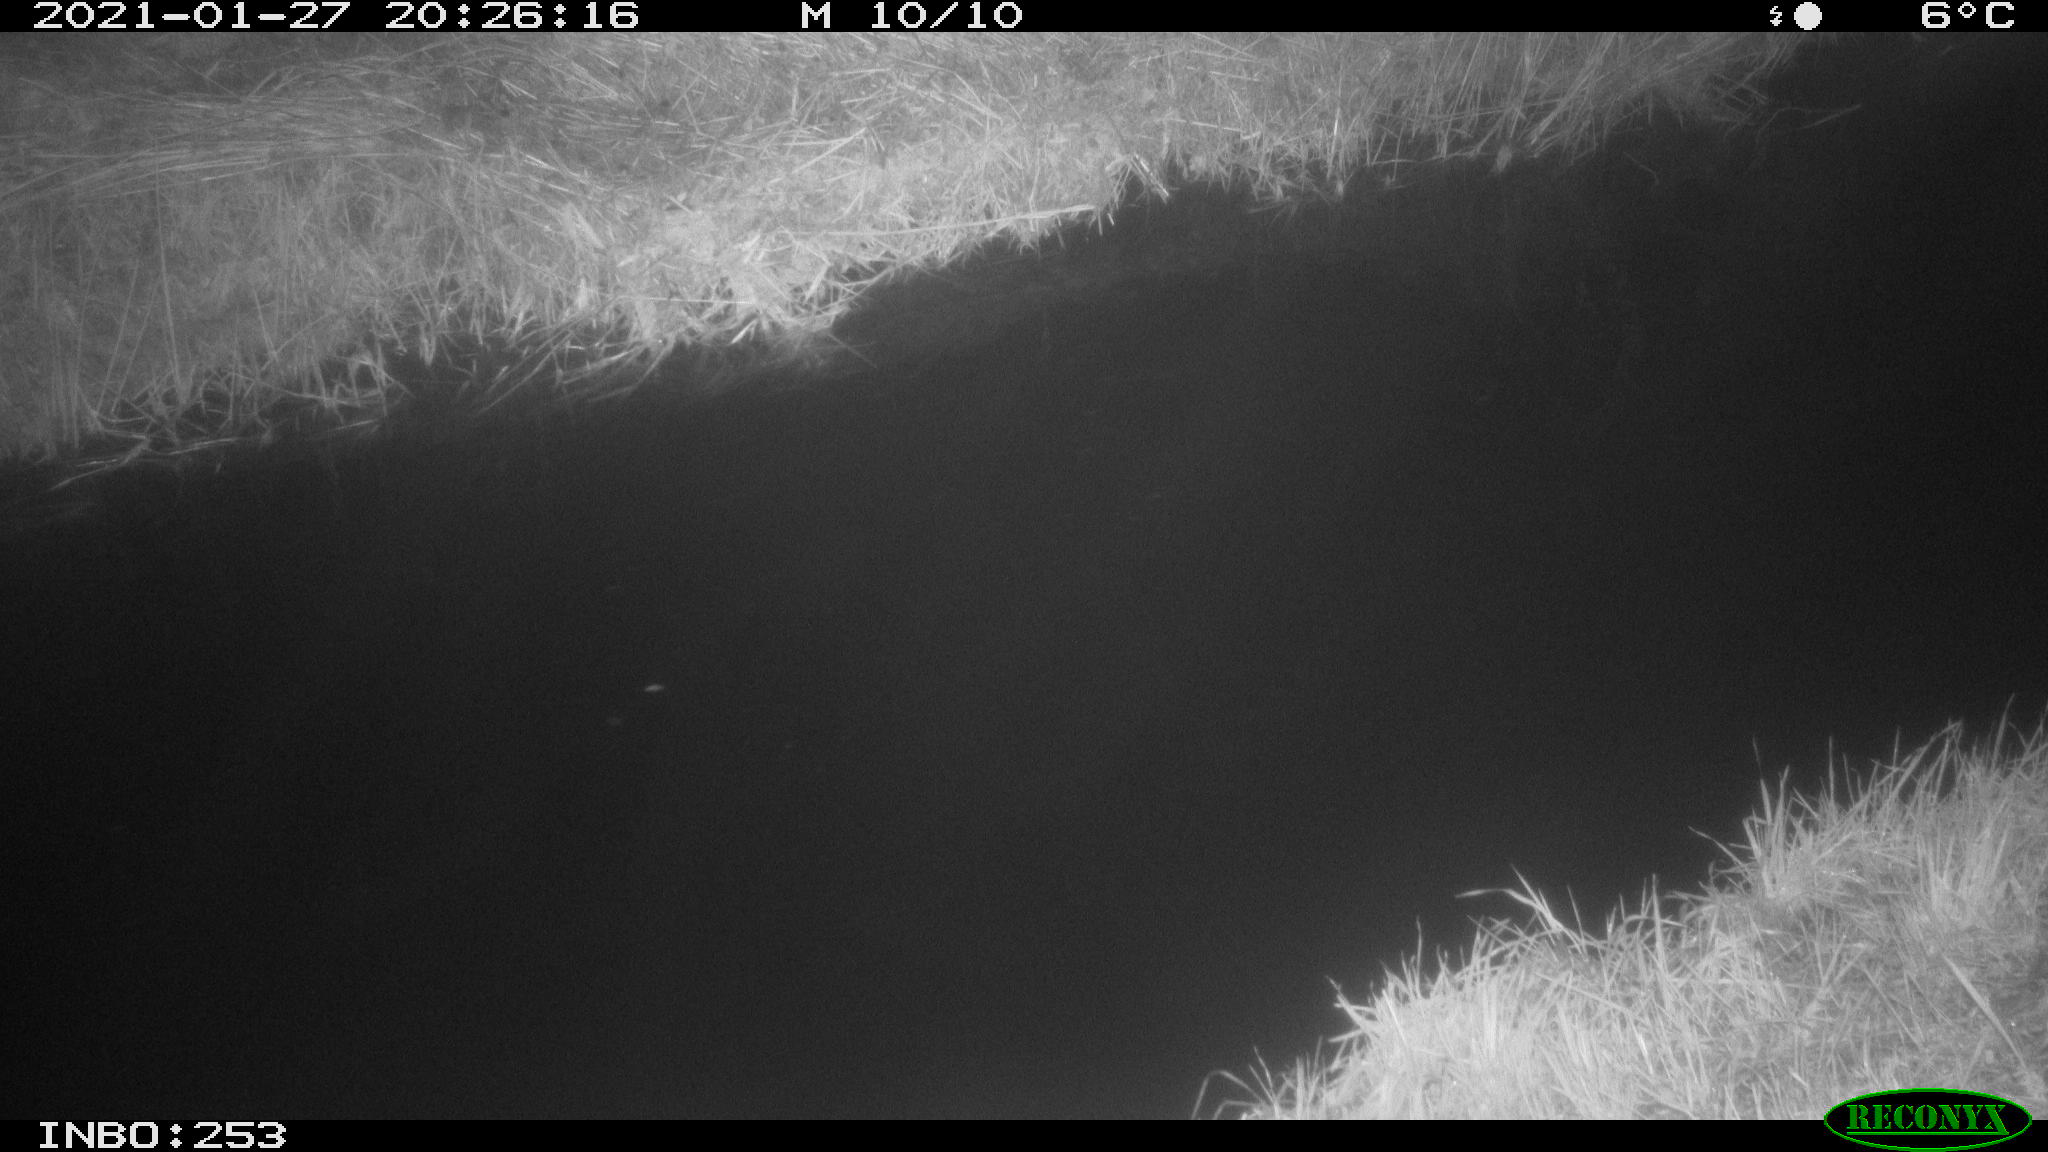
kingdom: Animalia
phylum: Chordata
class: Aves
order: Anseriformes
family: Anatidae
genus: Anas
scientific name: Anas platyrhynchos
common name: Mallard
